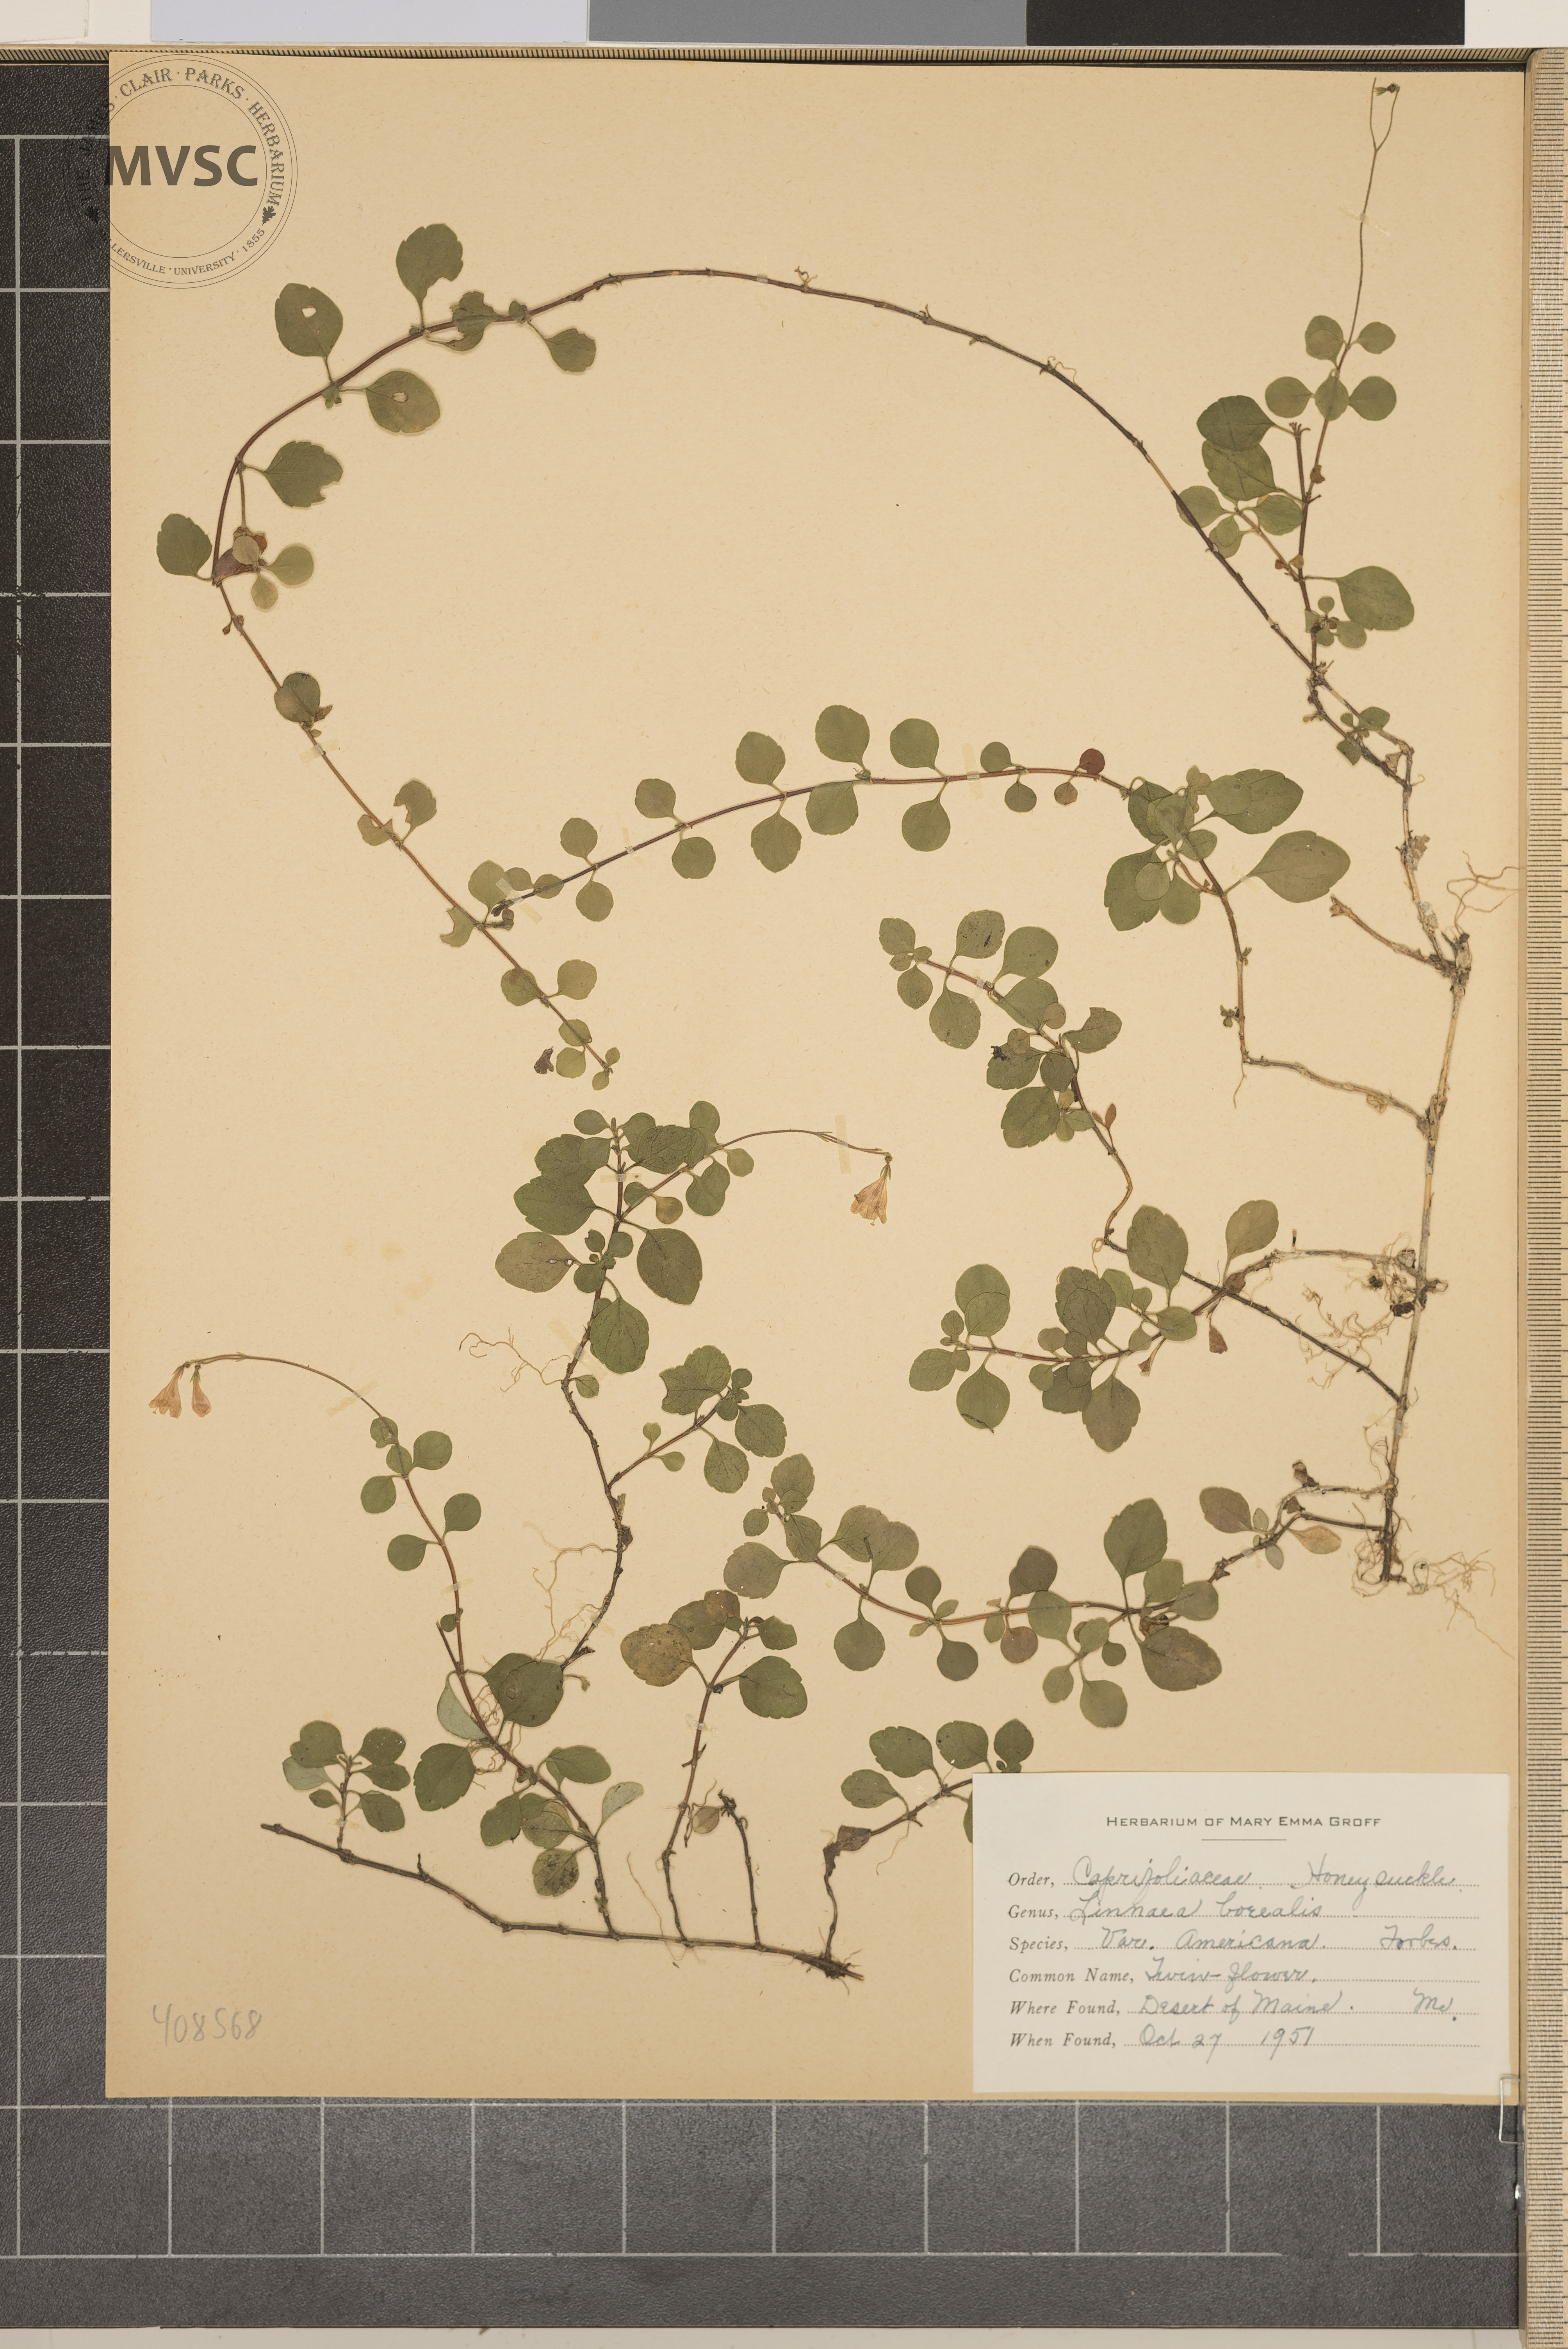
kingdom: Plantae
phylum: Tracheophyta
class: Magnoliopsida
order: Dipsacales
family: Caprifoliaceae
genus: Linnaea
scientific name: Linnaea borealis
